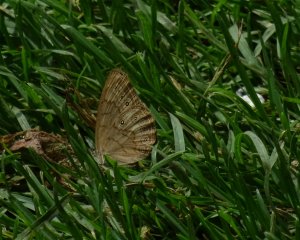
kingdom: Animalia
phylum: Arthropoda
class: Insecta
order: Lepidoptera
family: Nymphalidae
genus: Lethe
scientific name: Lethe eurydice
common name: Eyed Brown
